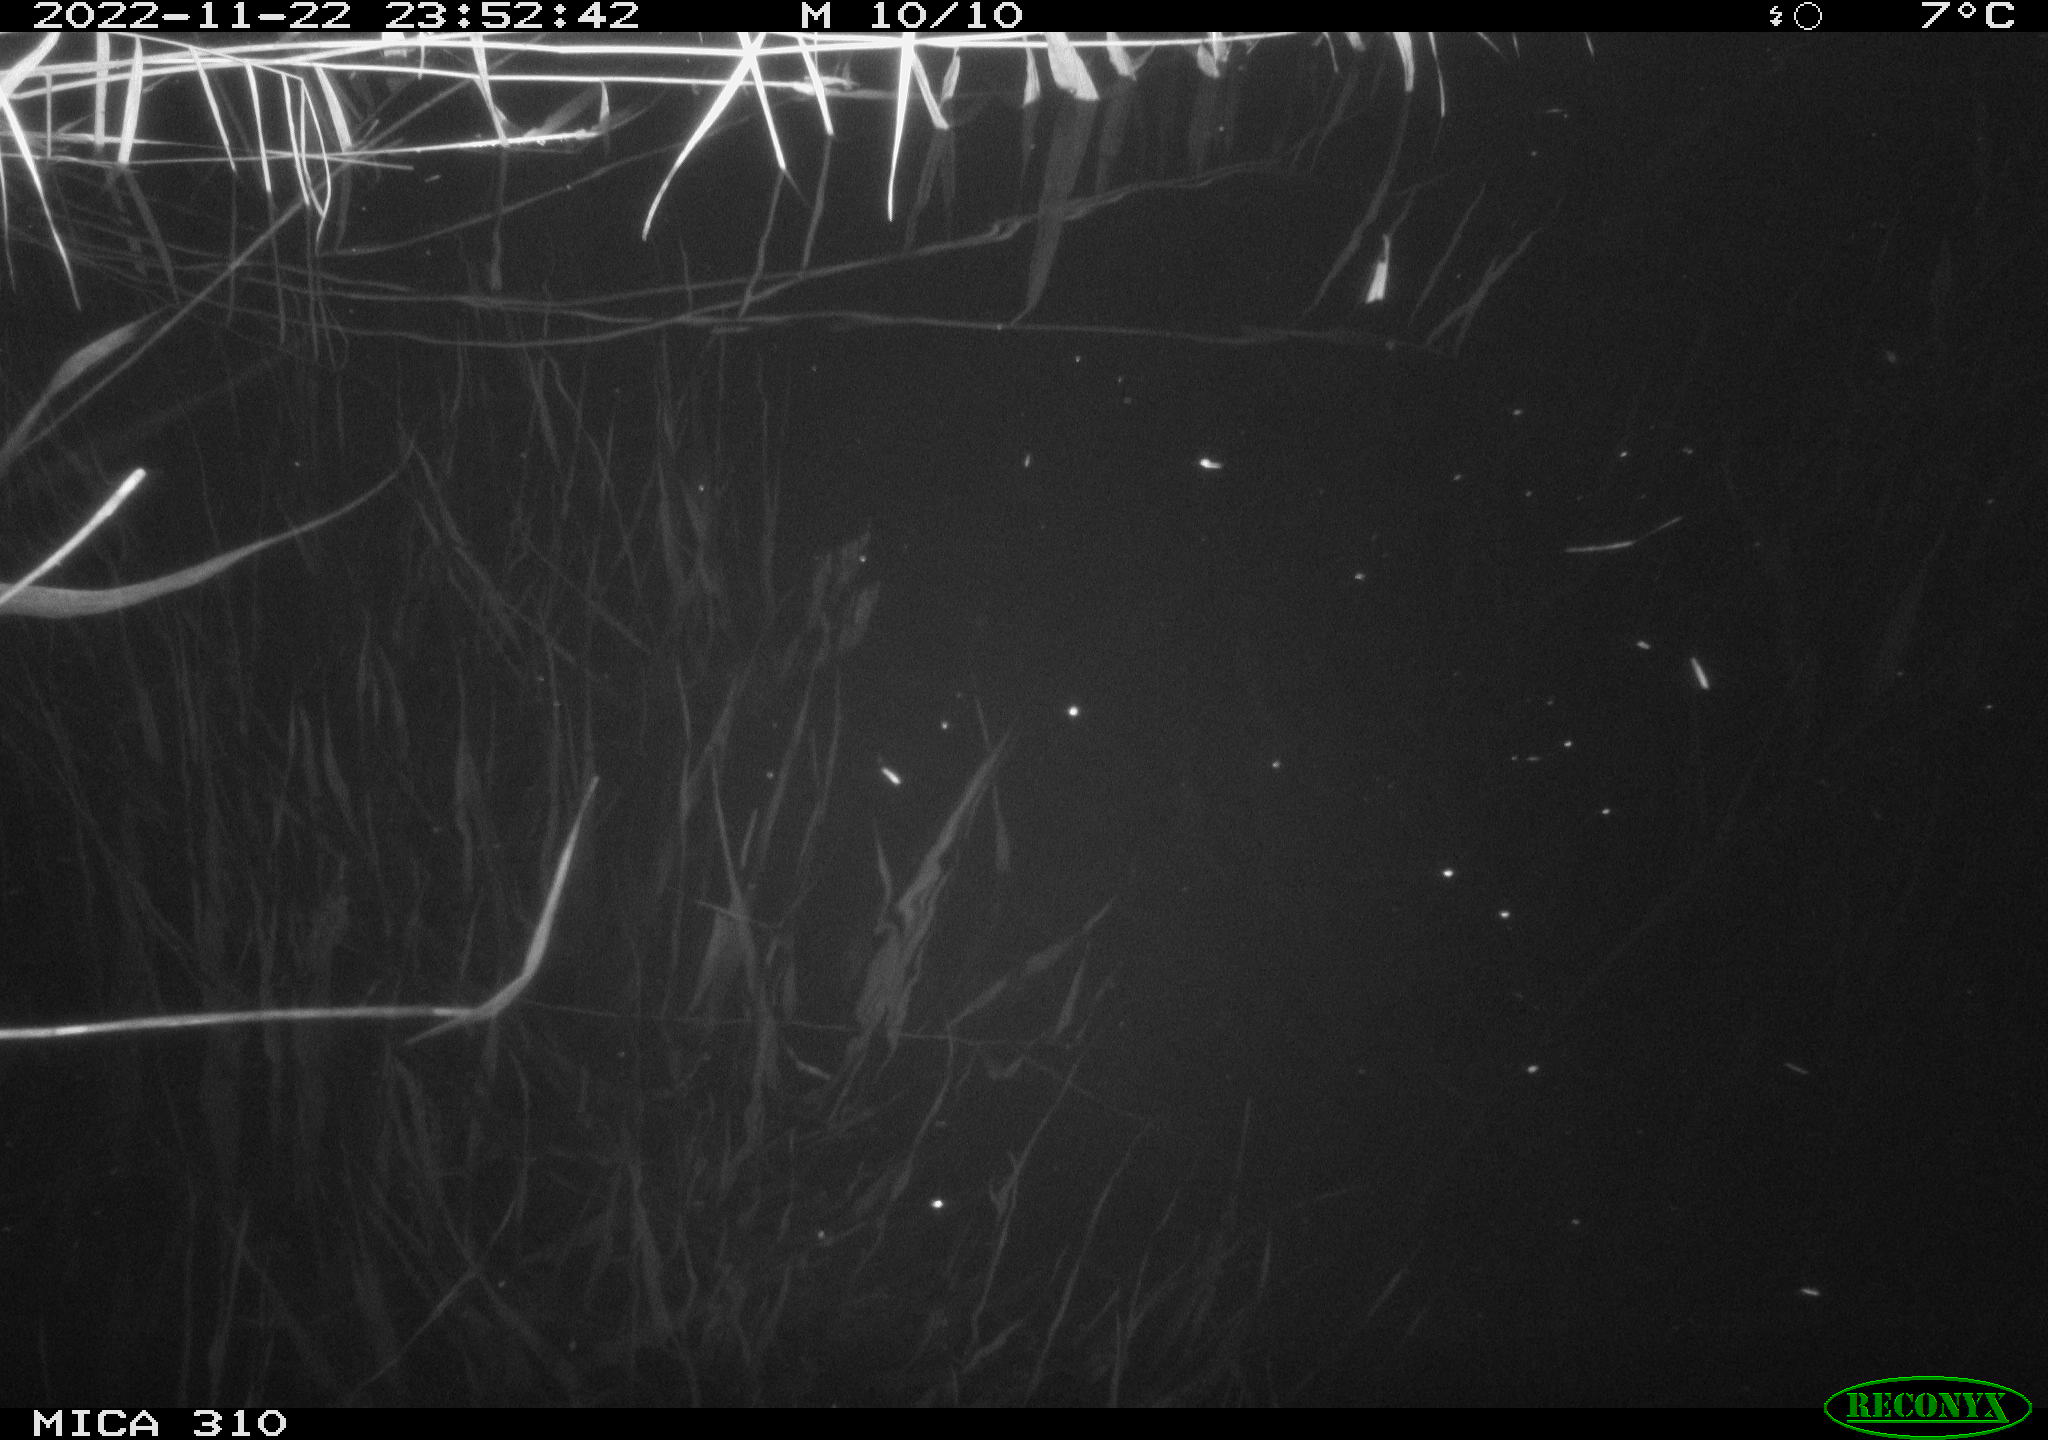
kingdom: Animalia
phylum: Chordata
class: Mammalia
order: Rodentia
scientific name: Rodentia
